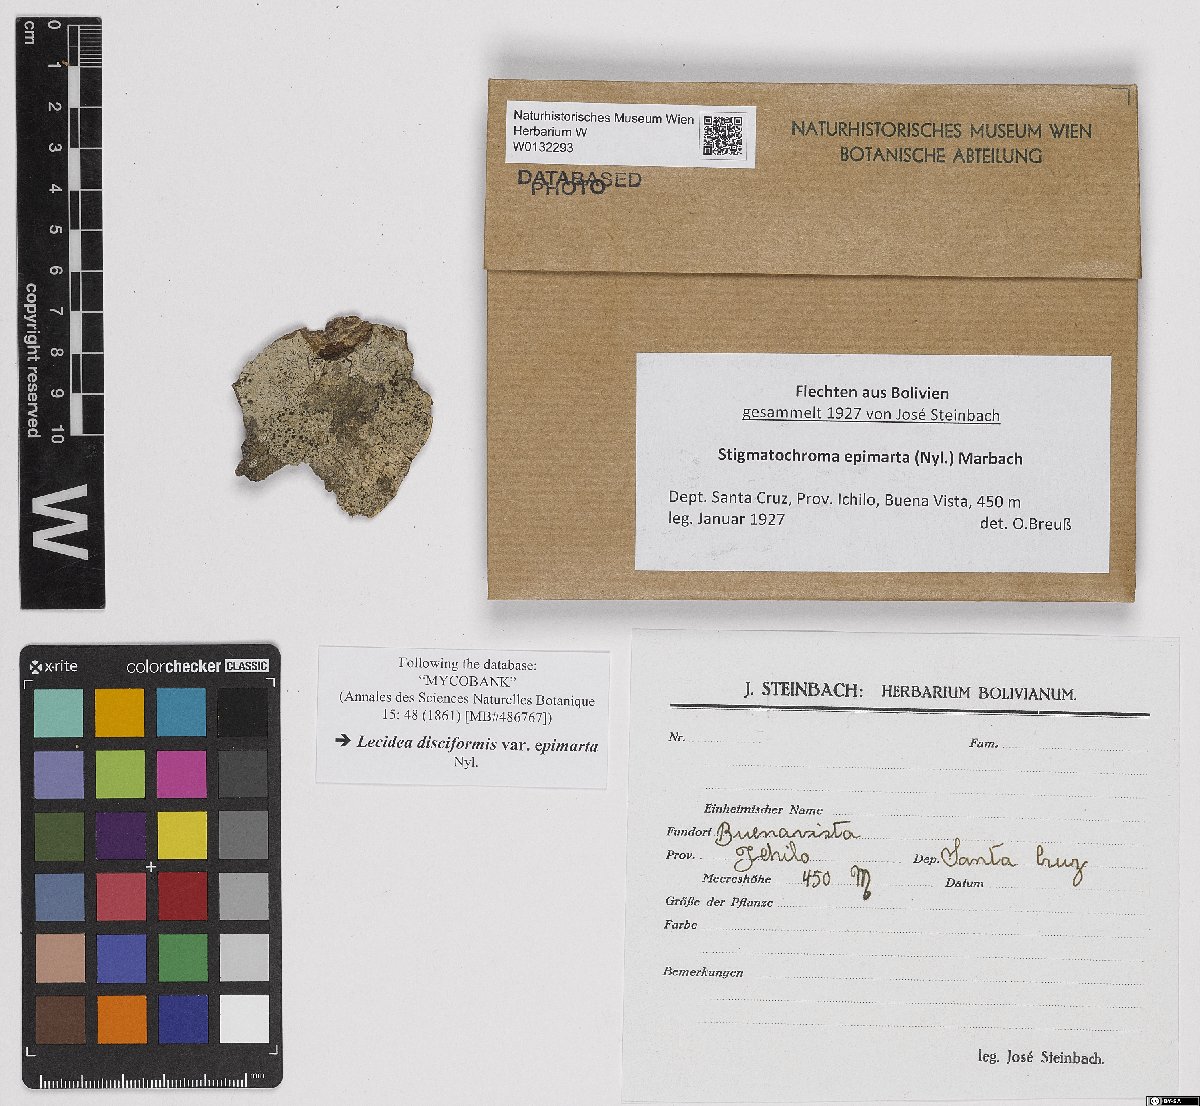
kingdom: Fungi
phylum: Ascomycota
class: Lecanoromycetes
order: Caliciales
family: Caliciaceae
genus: Stigmatochroma
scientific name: Stigmatochroma epimartum
